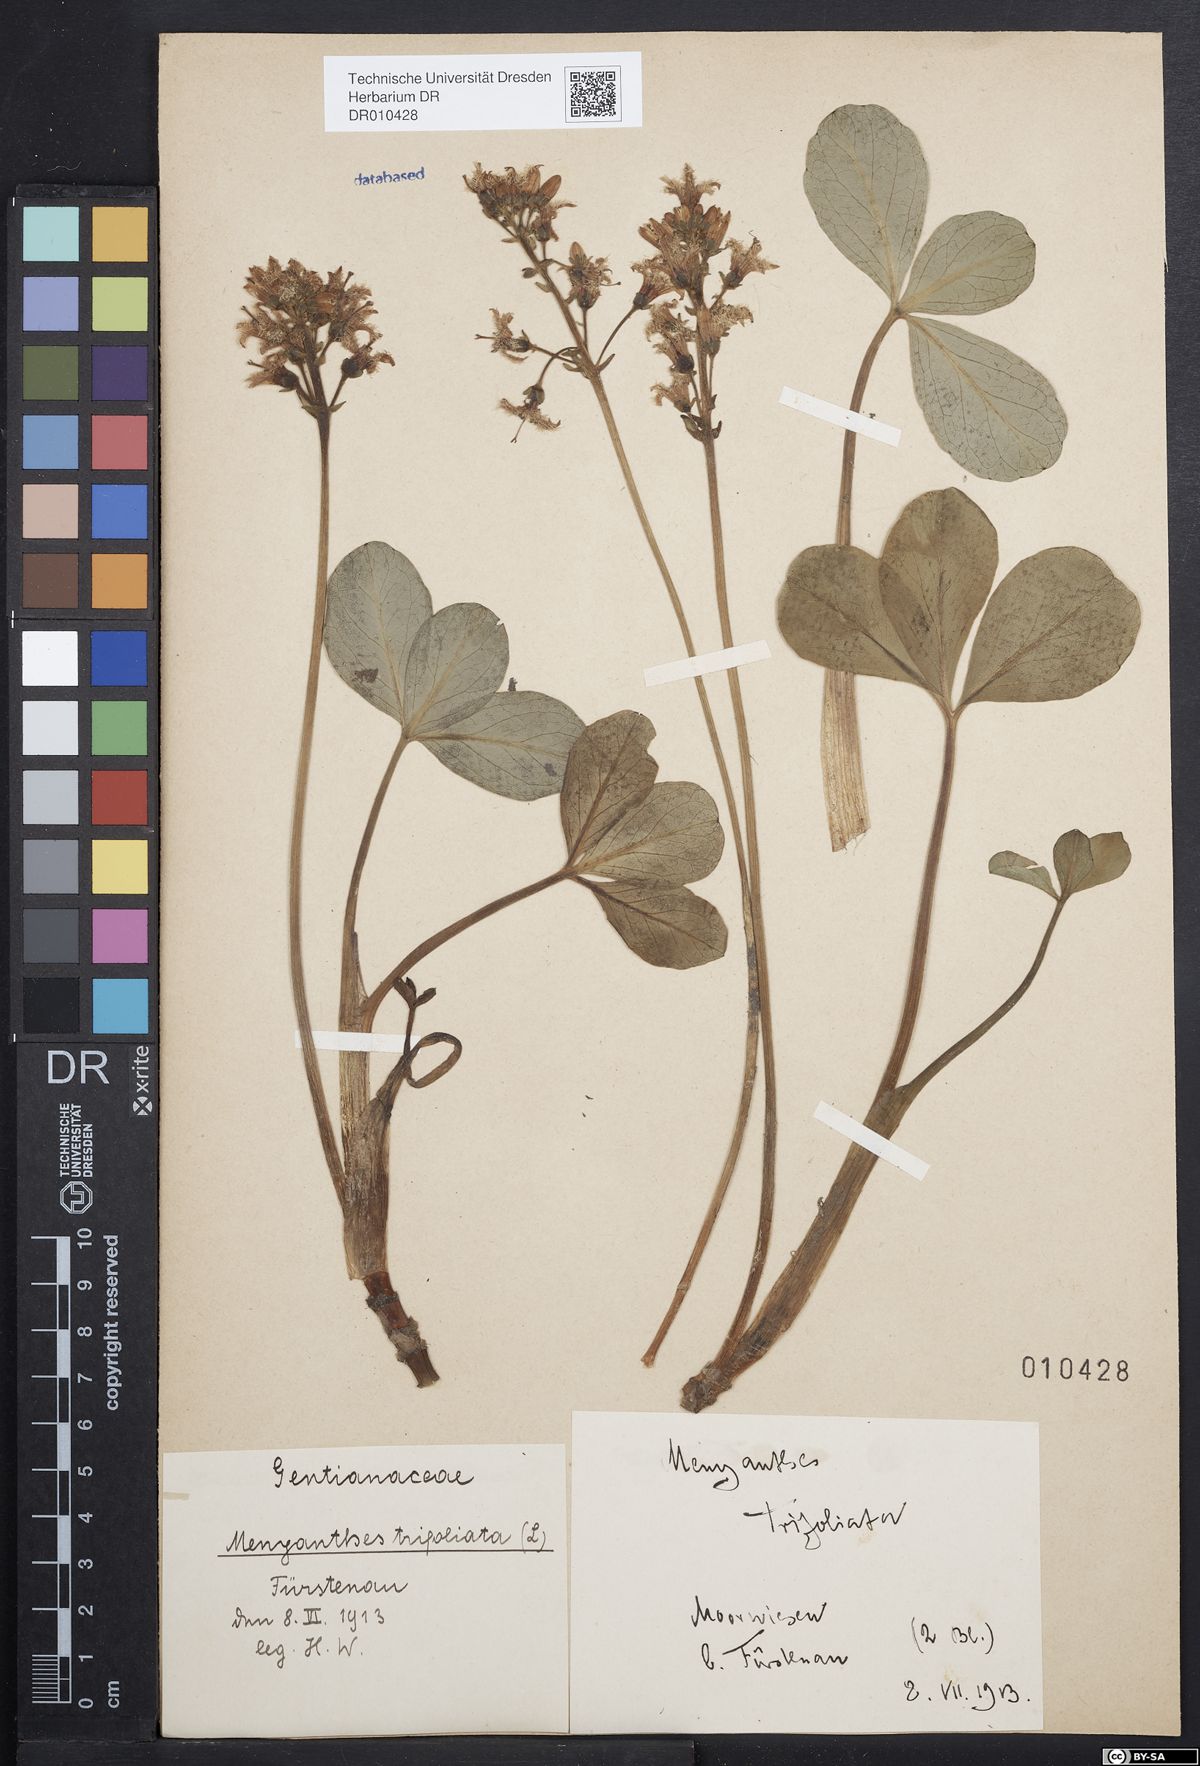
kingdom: Plantae
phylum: Tracheophyta
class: Magnoliopsida
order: Asterales
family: Menyanthaceae
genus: Menyanthes
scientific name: Menyanthes trifoliata
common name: Bogbean
